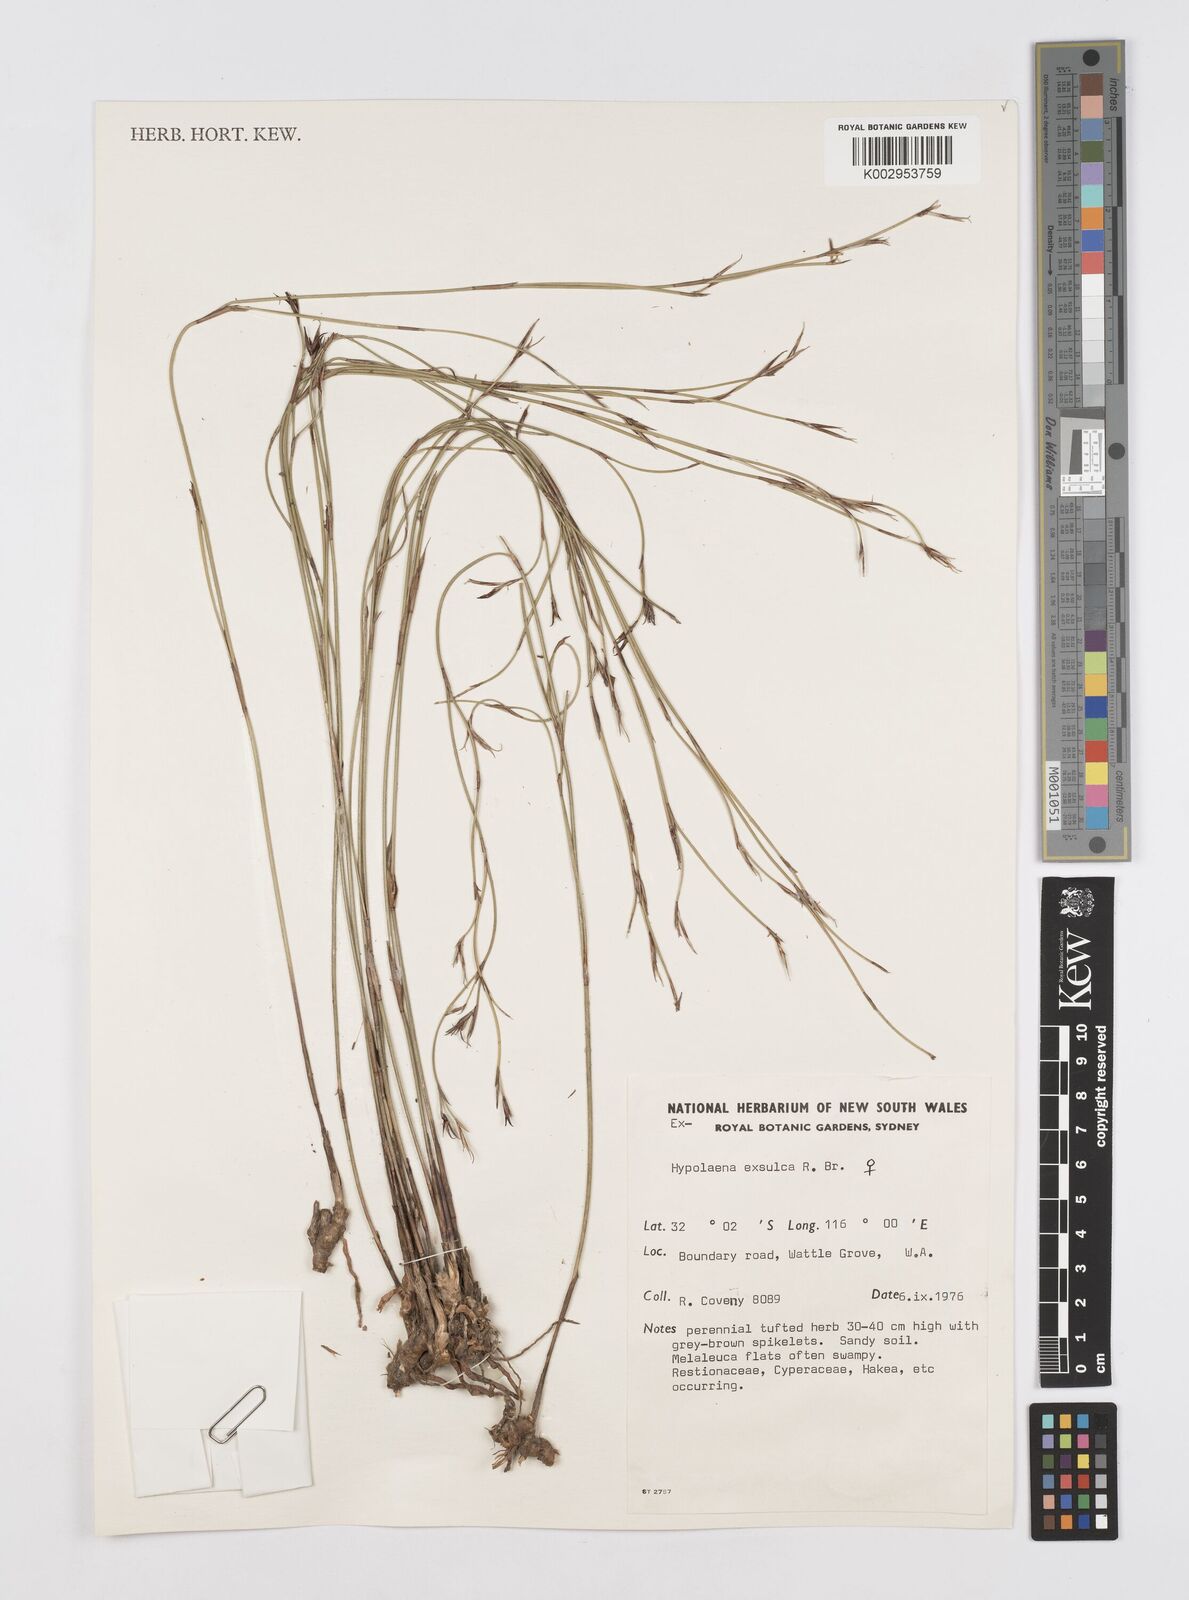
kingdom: Plantae
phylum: Tracheophyta
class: Liliopsida
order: Poales
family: Restionaceae
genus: Hypolaena
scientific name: Hypolaena exsulca
